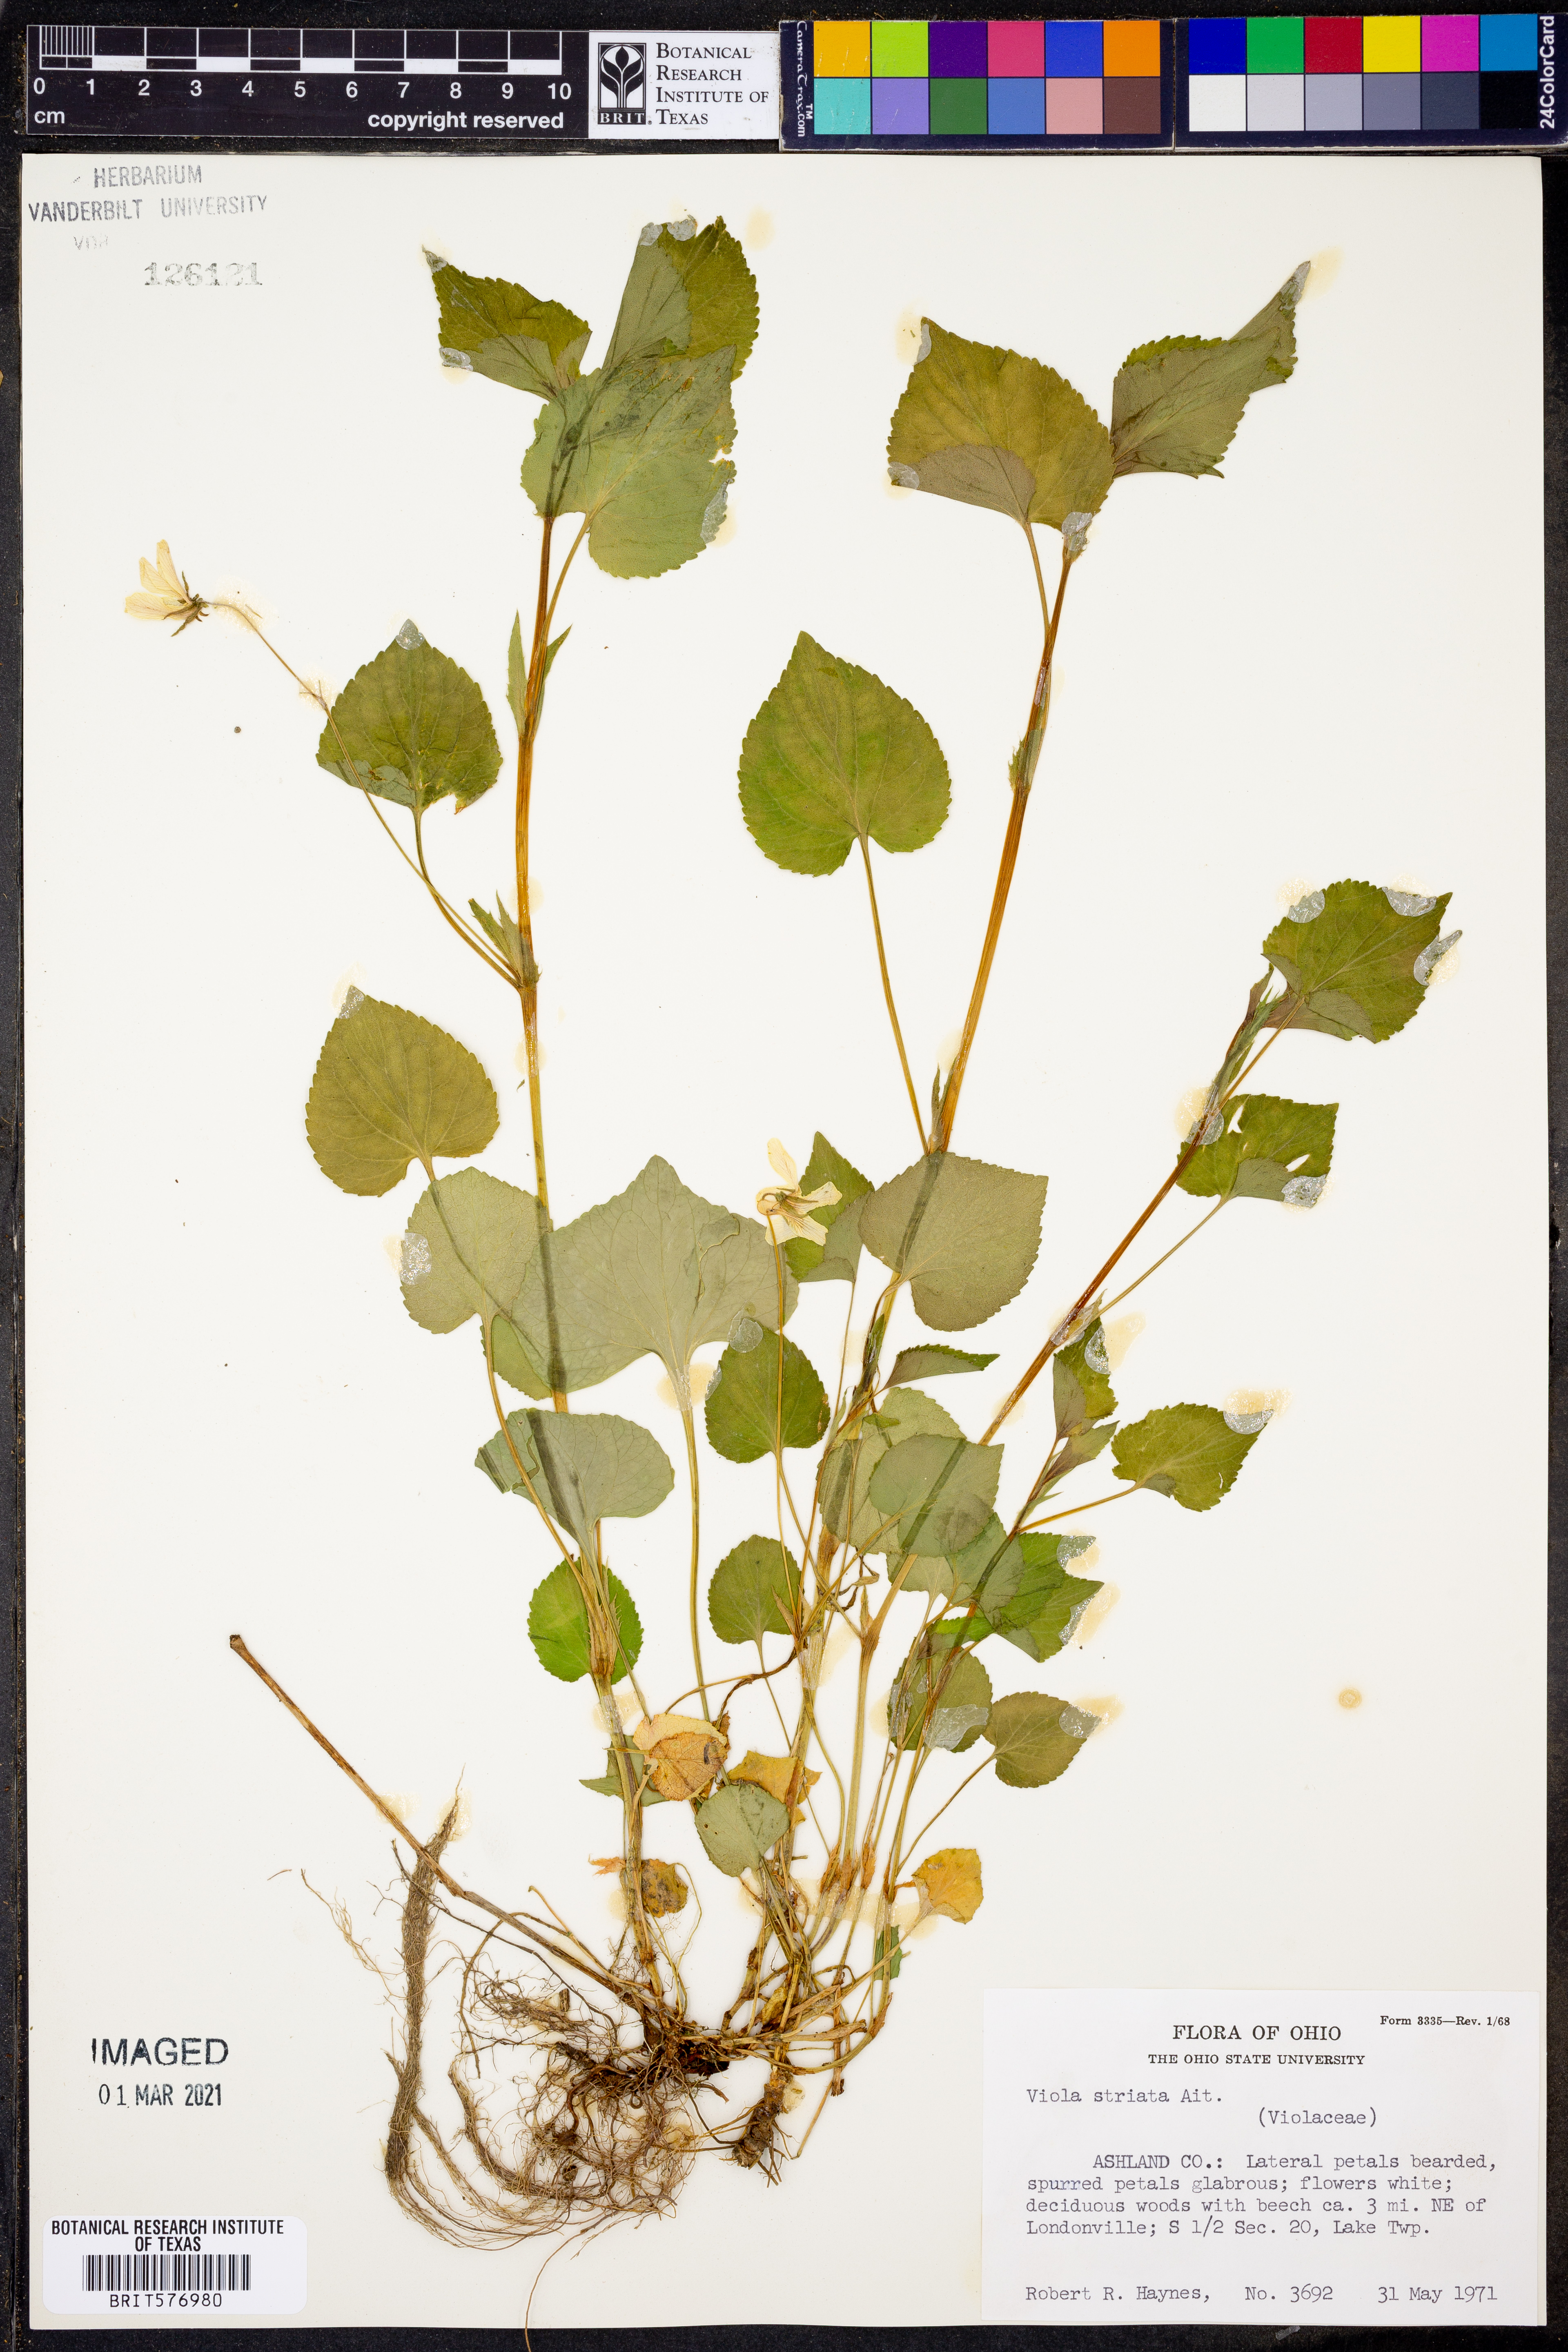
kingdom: Plantae
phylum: Tracheophyta
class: Magnoliopsida
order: Malpighiales
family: Violaceae
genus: Viola
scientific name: Viola striata
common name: Cream violet
